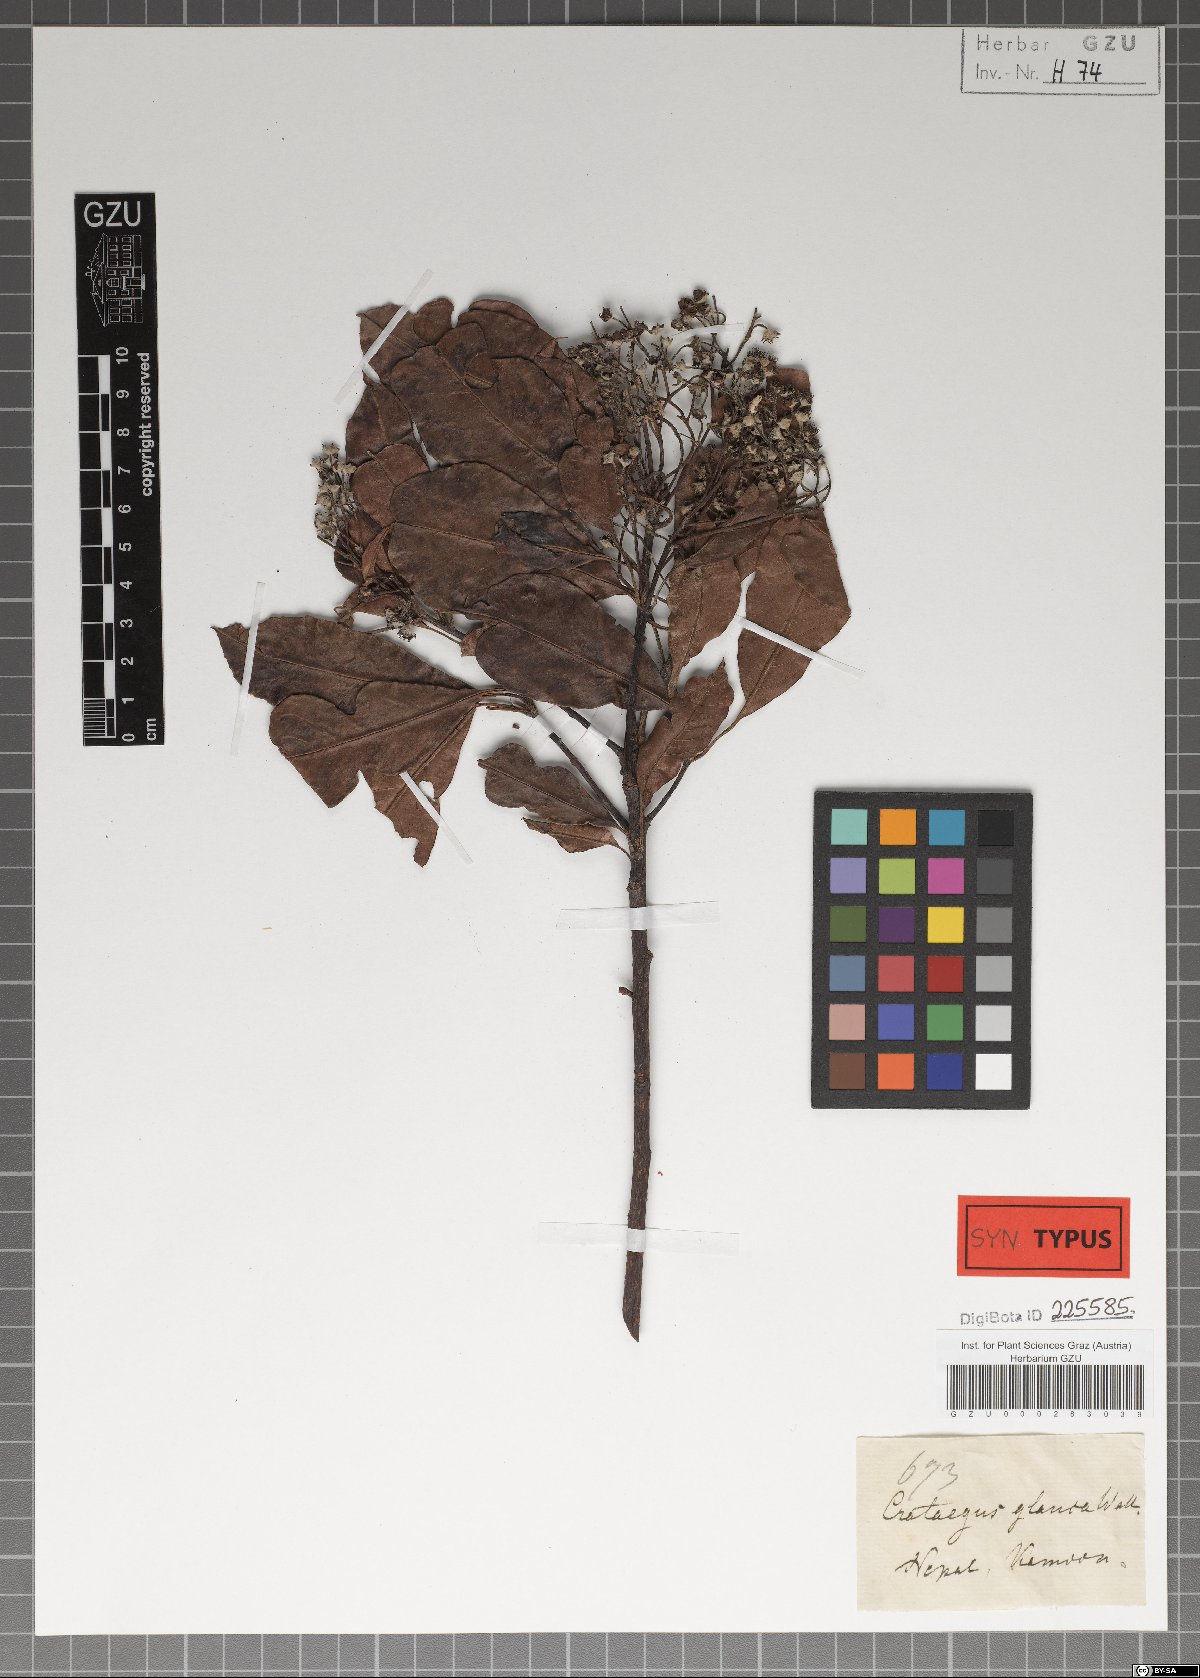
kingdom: Plantae
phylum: Tracheophyta
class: Magnoliopsida
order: Rosales
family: Rosaceae
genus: Stranvaesia
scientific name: Stranvaesia nussia
